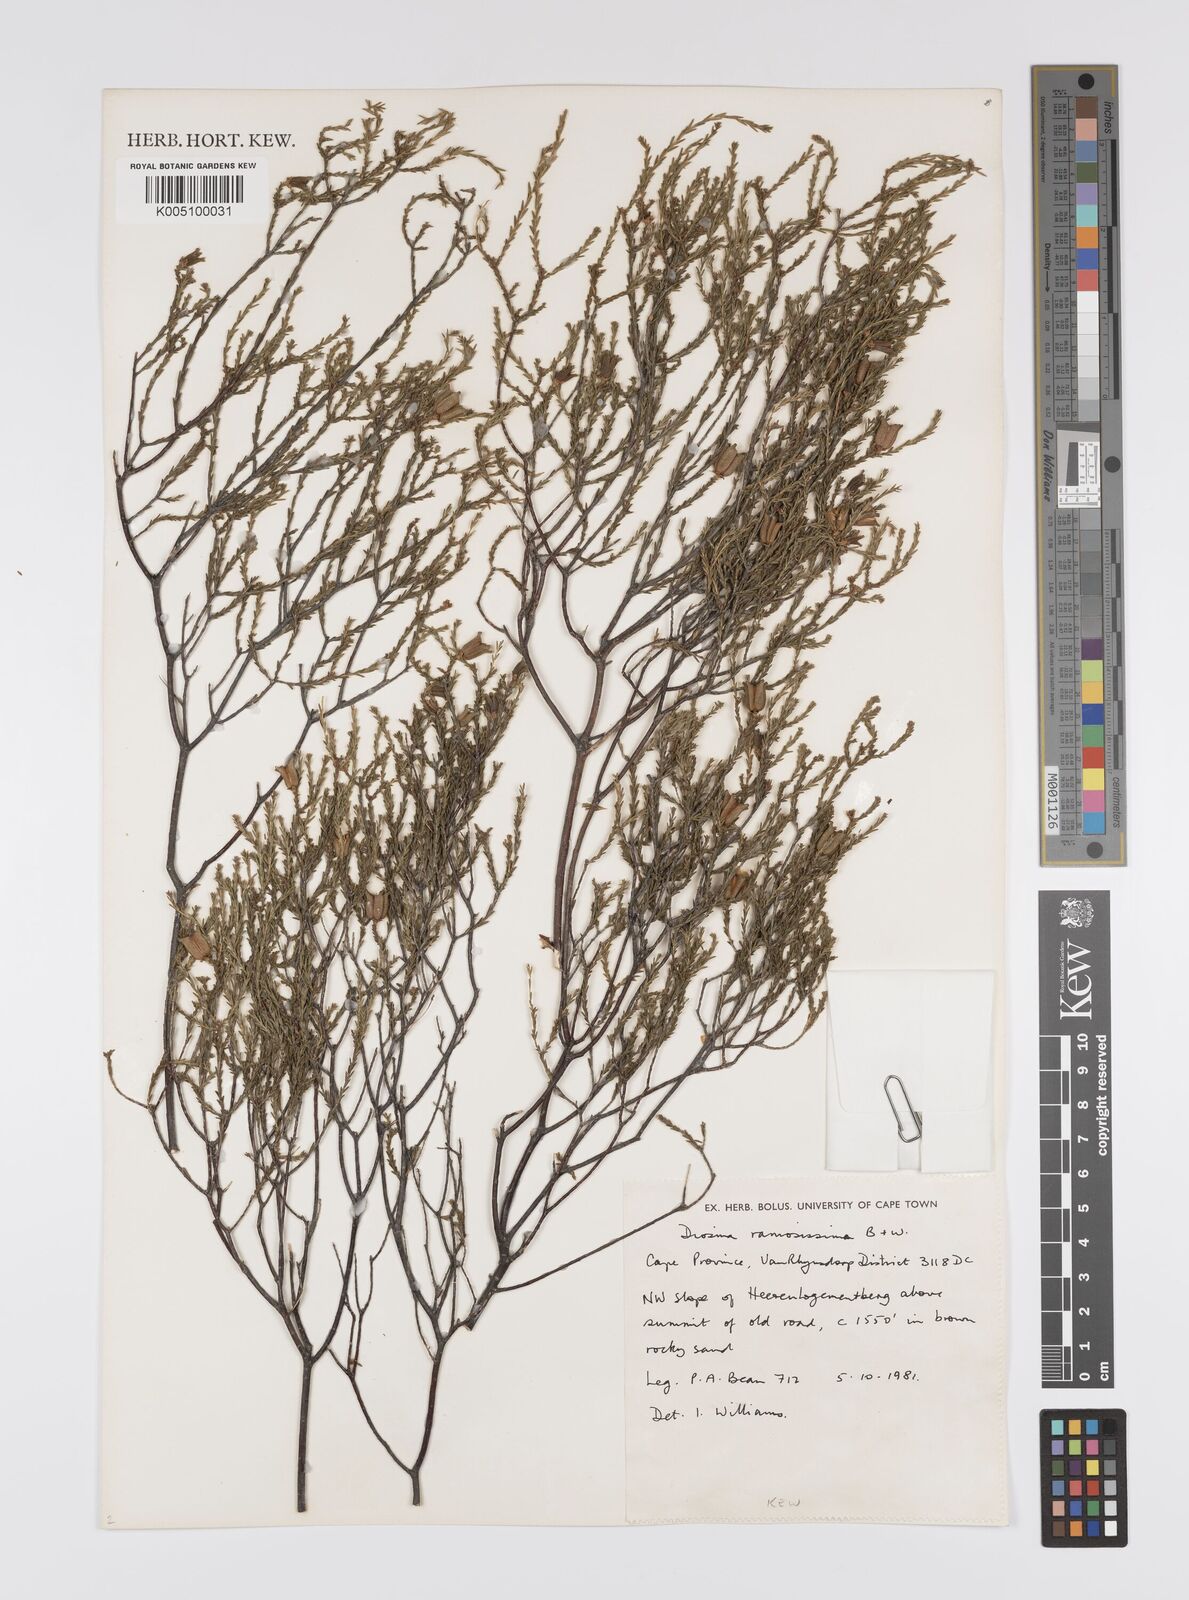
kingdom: Plantae
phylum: Tracheophyta
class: Magnoliopsida
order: Sapindales
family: Rutaceae
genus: Diosma
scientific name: Diosma ramosissima
